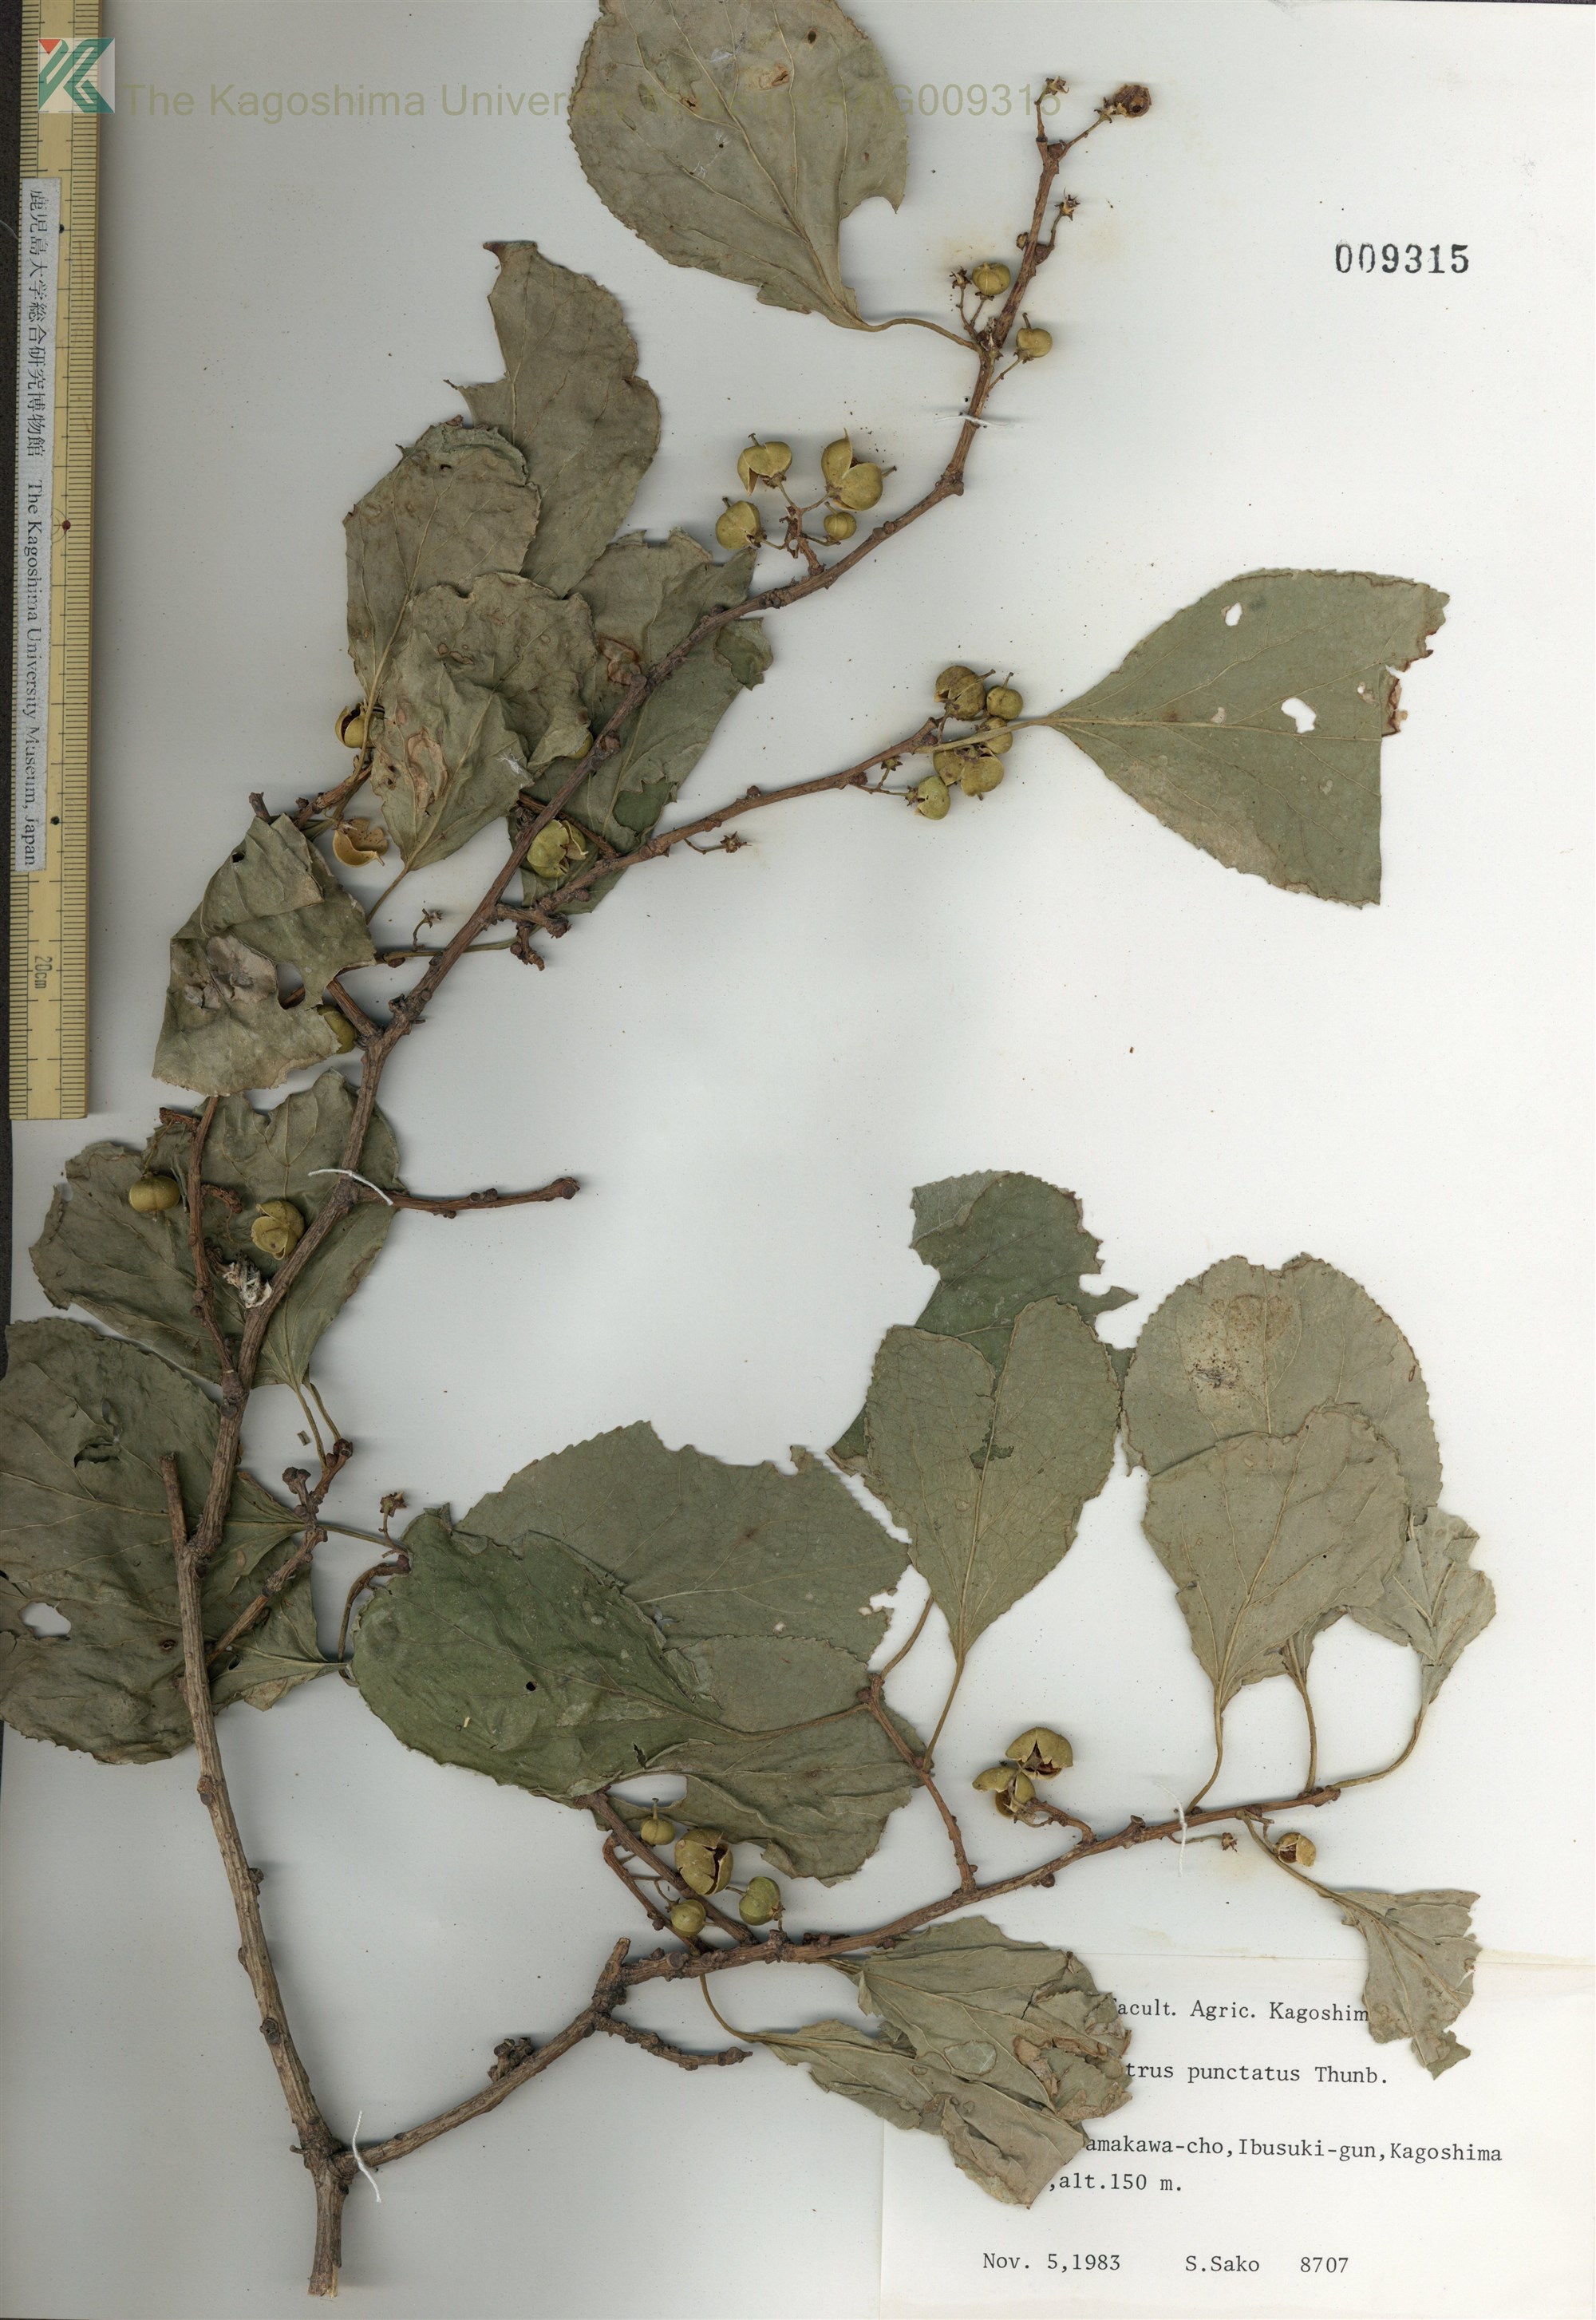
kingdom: Plantae
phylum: Tracheophyta
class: Magnoliopsida
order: Celastrales
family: Celastraceae
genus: Celastrus
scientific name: Celastrus punctatus
